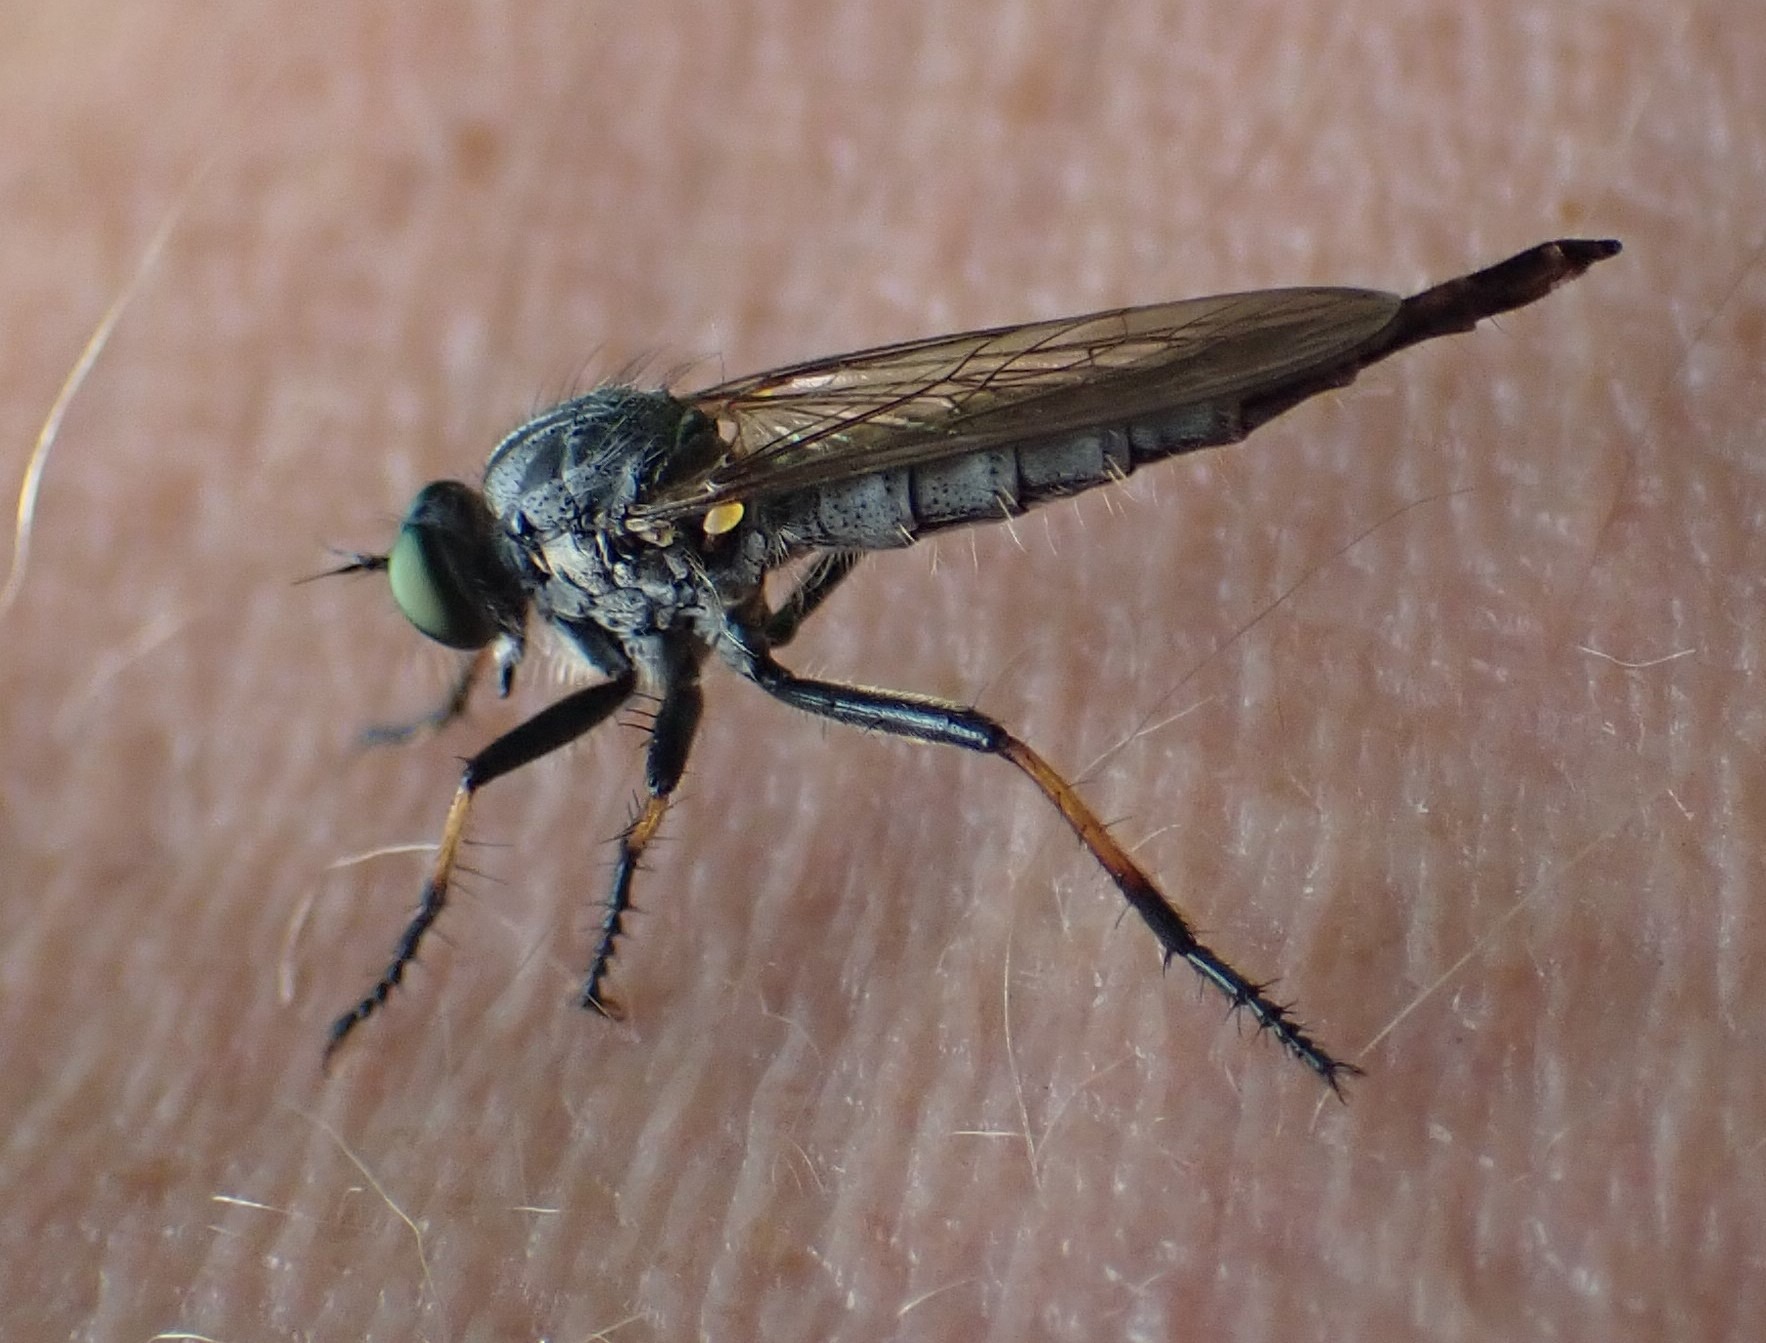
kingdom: Animalia
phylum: Arthropoda
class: Insecta
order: Diptera
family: Asilidae
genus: Neoitamus
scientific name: Neoitamus cyanurus
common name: Sortfodet skovrovflue
